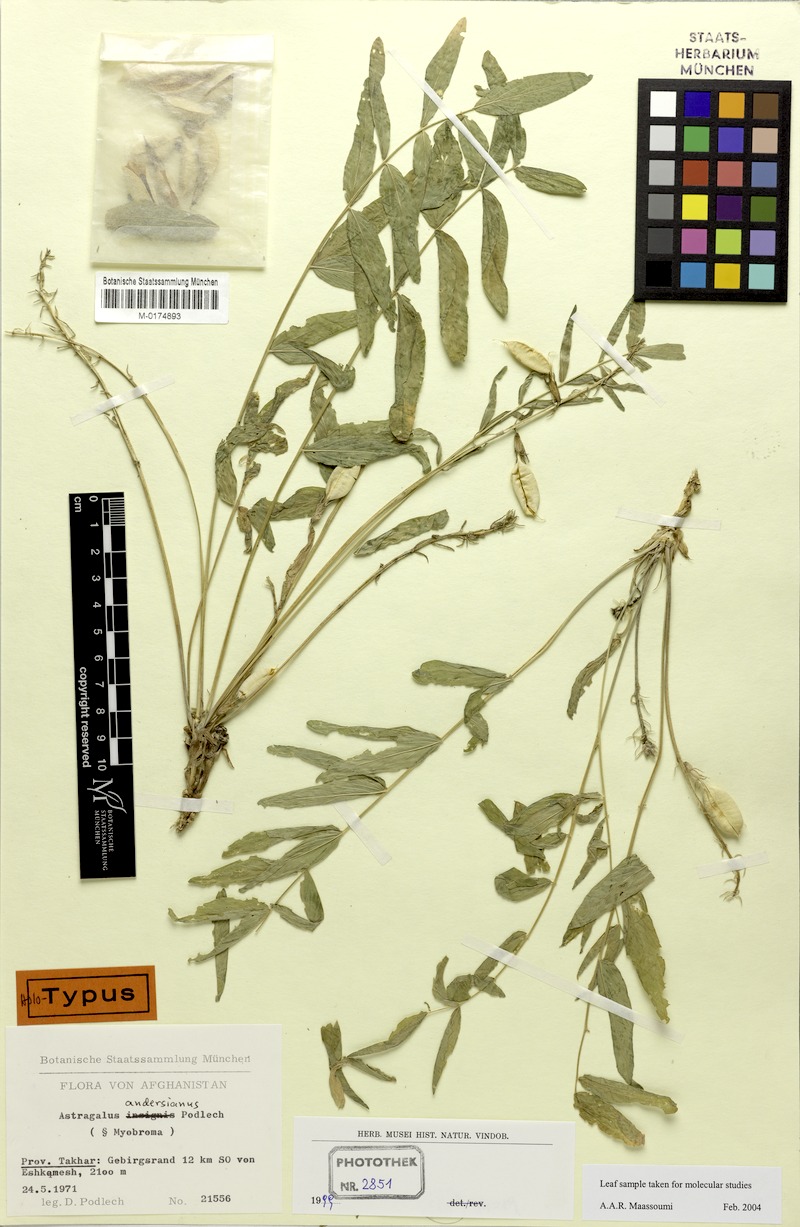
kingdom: Plantae
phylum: Tracheophyta
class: Magnoliopsida
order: Fabales
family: Fabaceae
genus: Astragalus
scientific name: Astragalus andersianus
